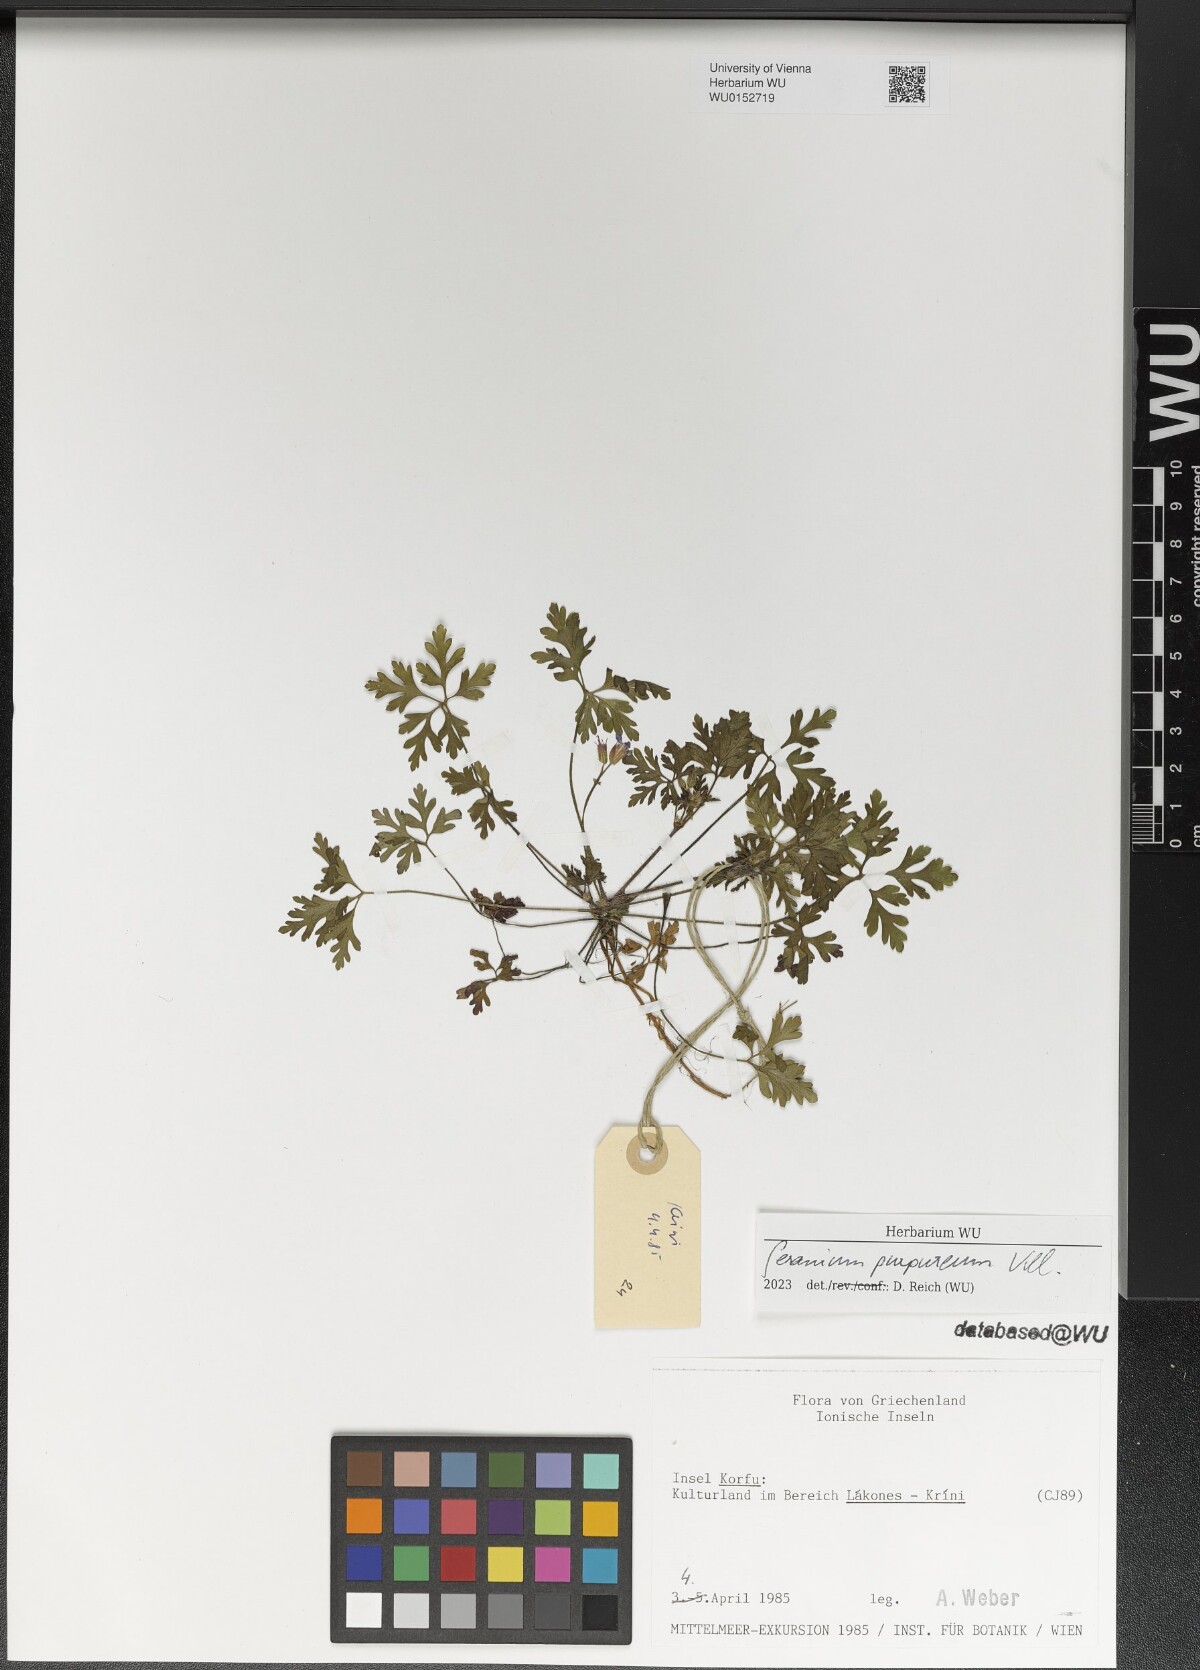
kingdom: Plantae
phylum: Tracheophyta
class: Magnoliopsida
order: Geraniales
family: Geraniaceae
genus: Geranium
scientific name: Geranium purpureum
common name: Little-robin
